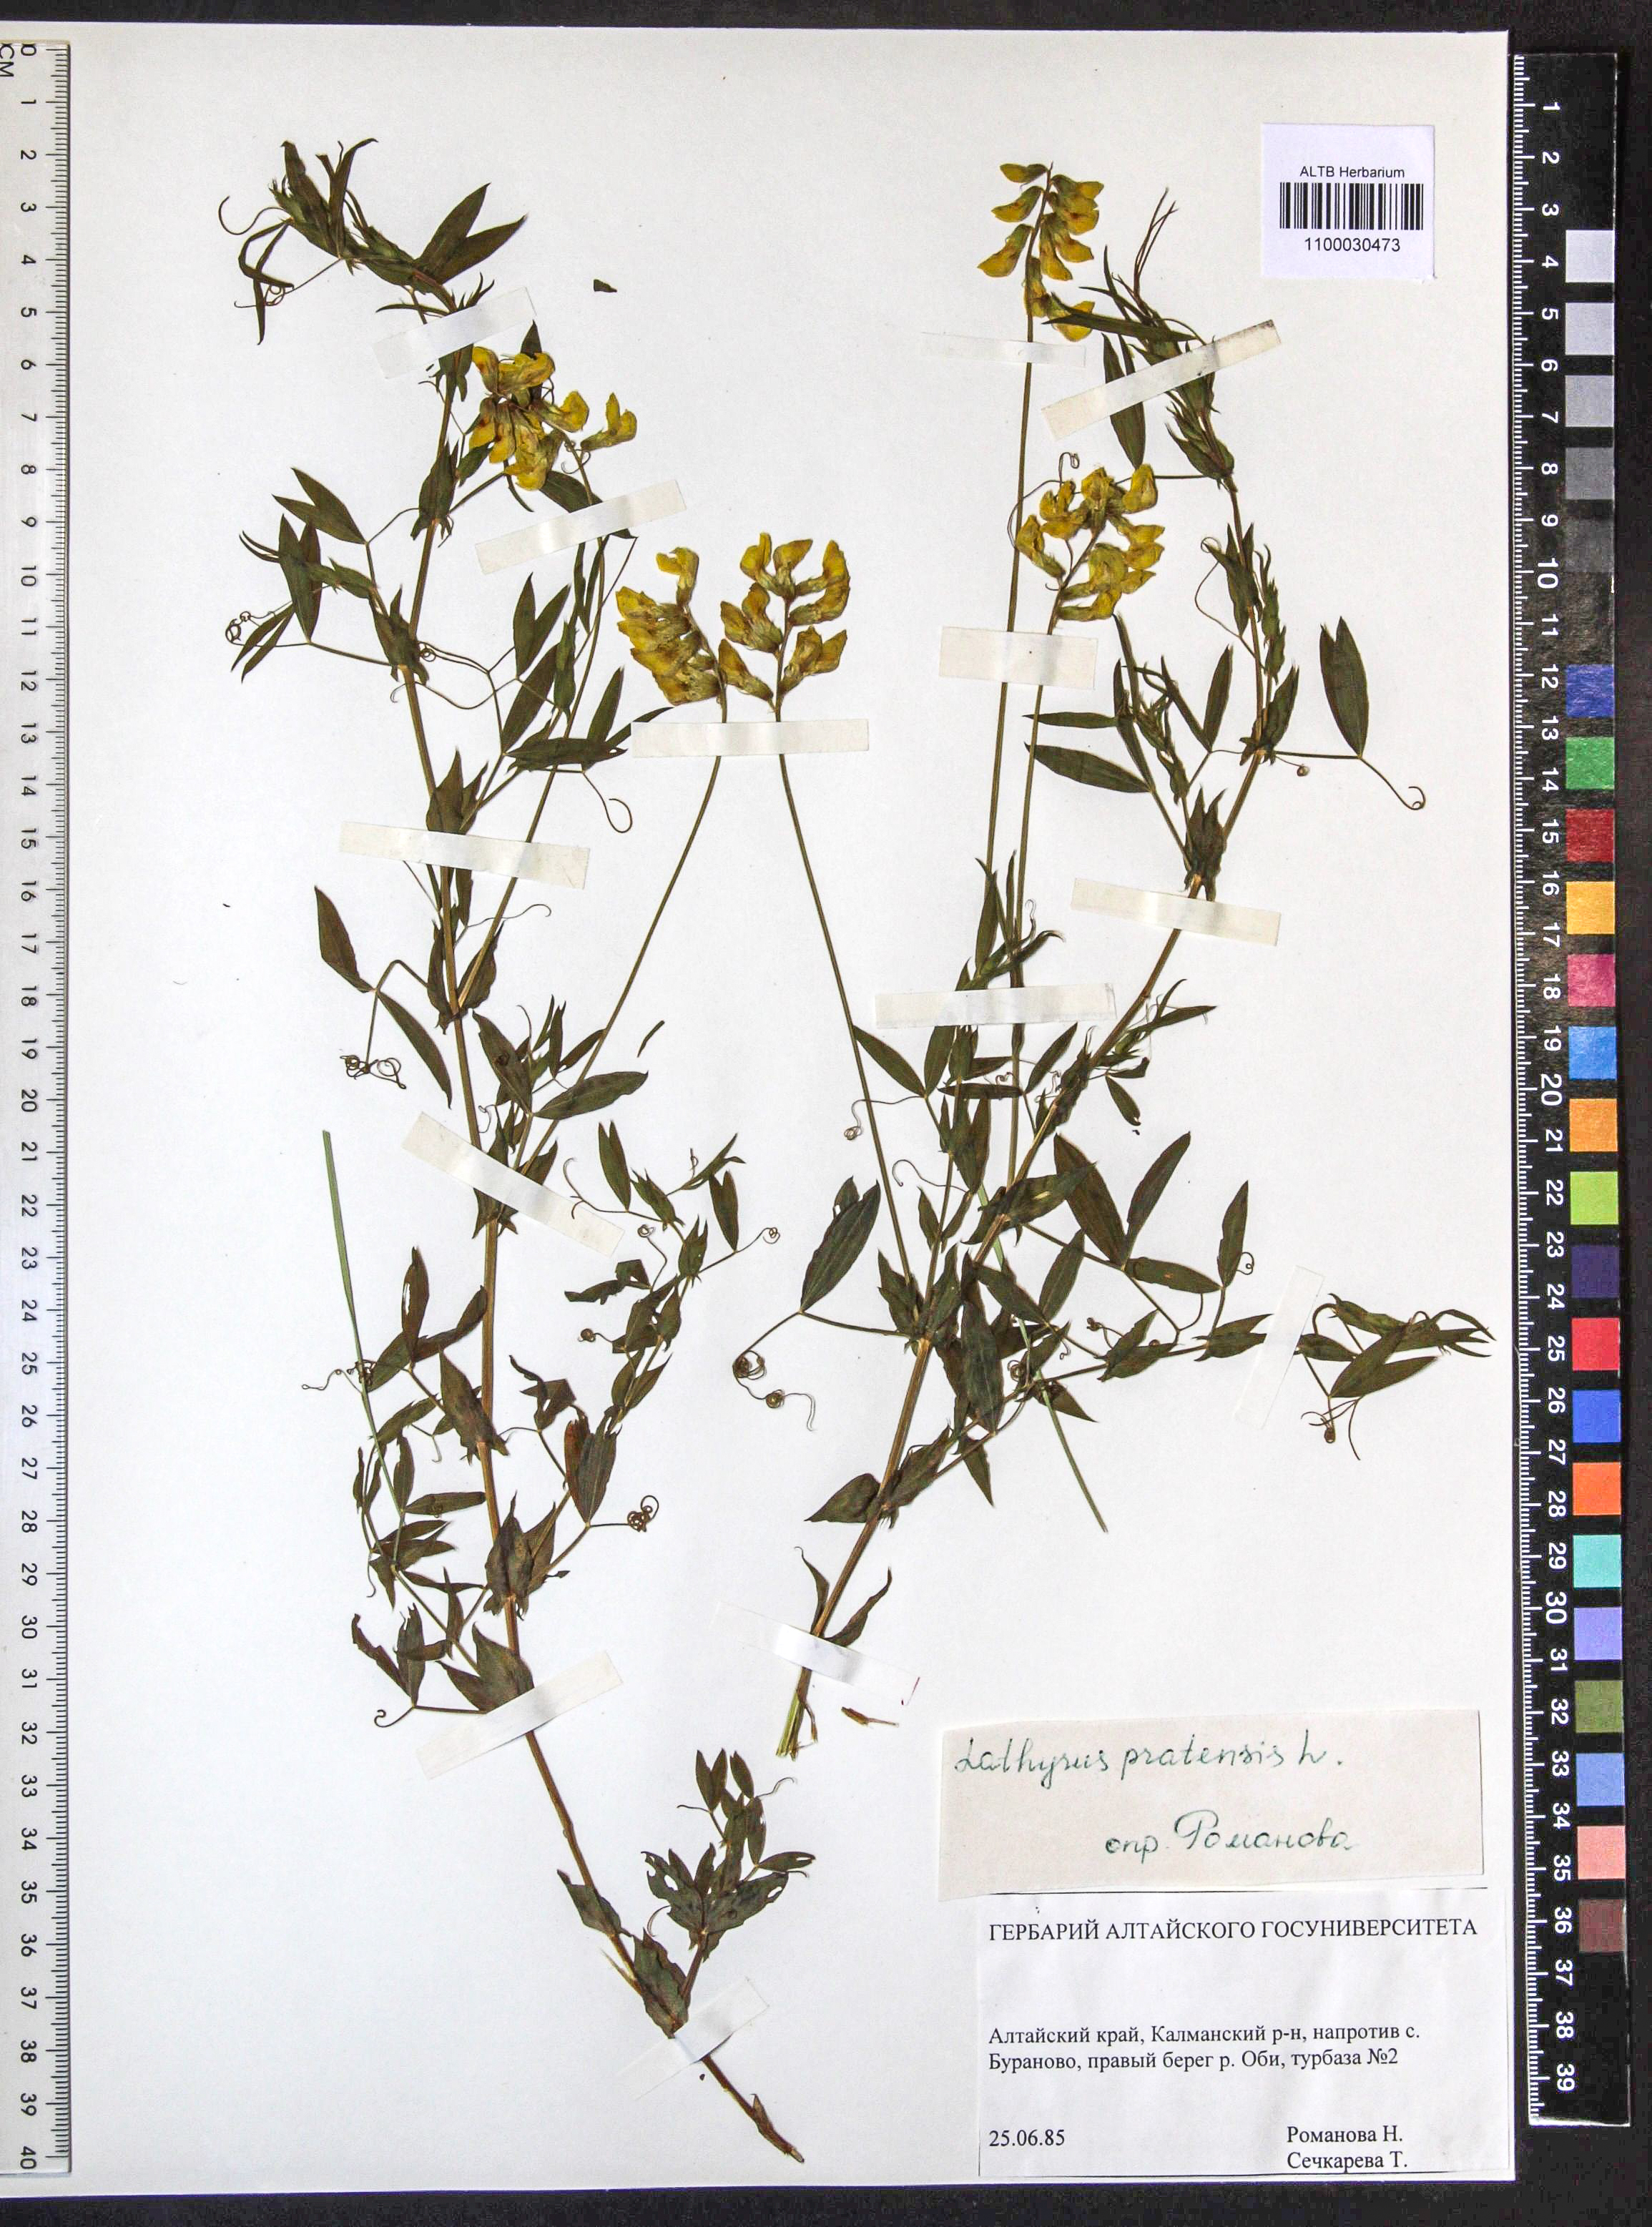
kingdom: Plantae
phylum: Tracheophyta
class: Magnoliopsida
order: Fabales
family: Fabaceae
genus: Lathyrus
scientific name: Lathyrus pratensis
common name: Meadow vetchling
